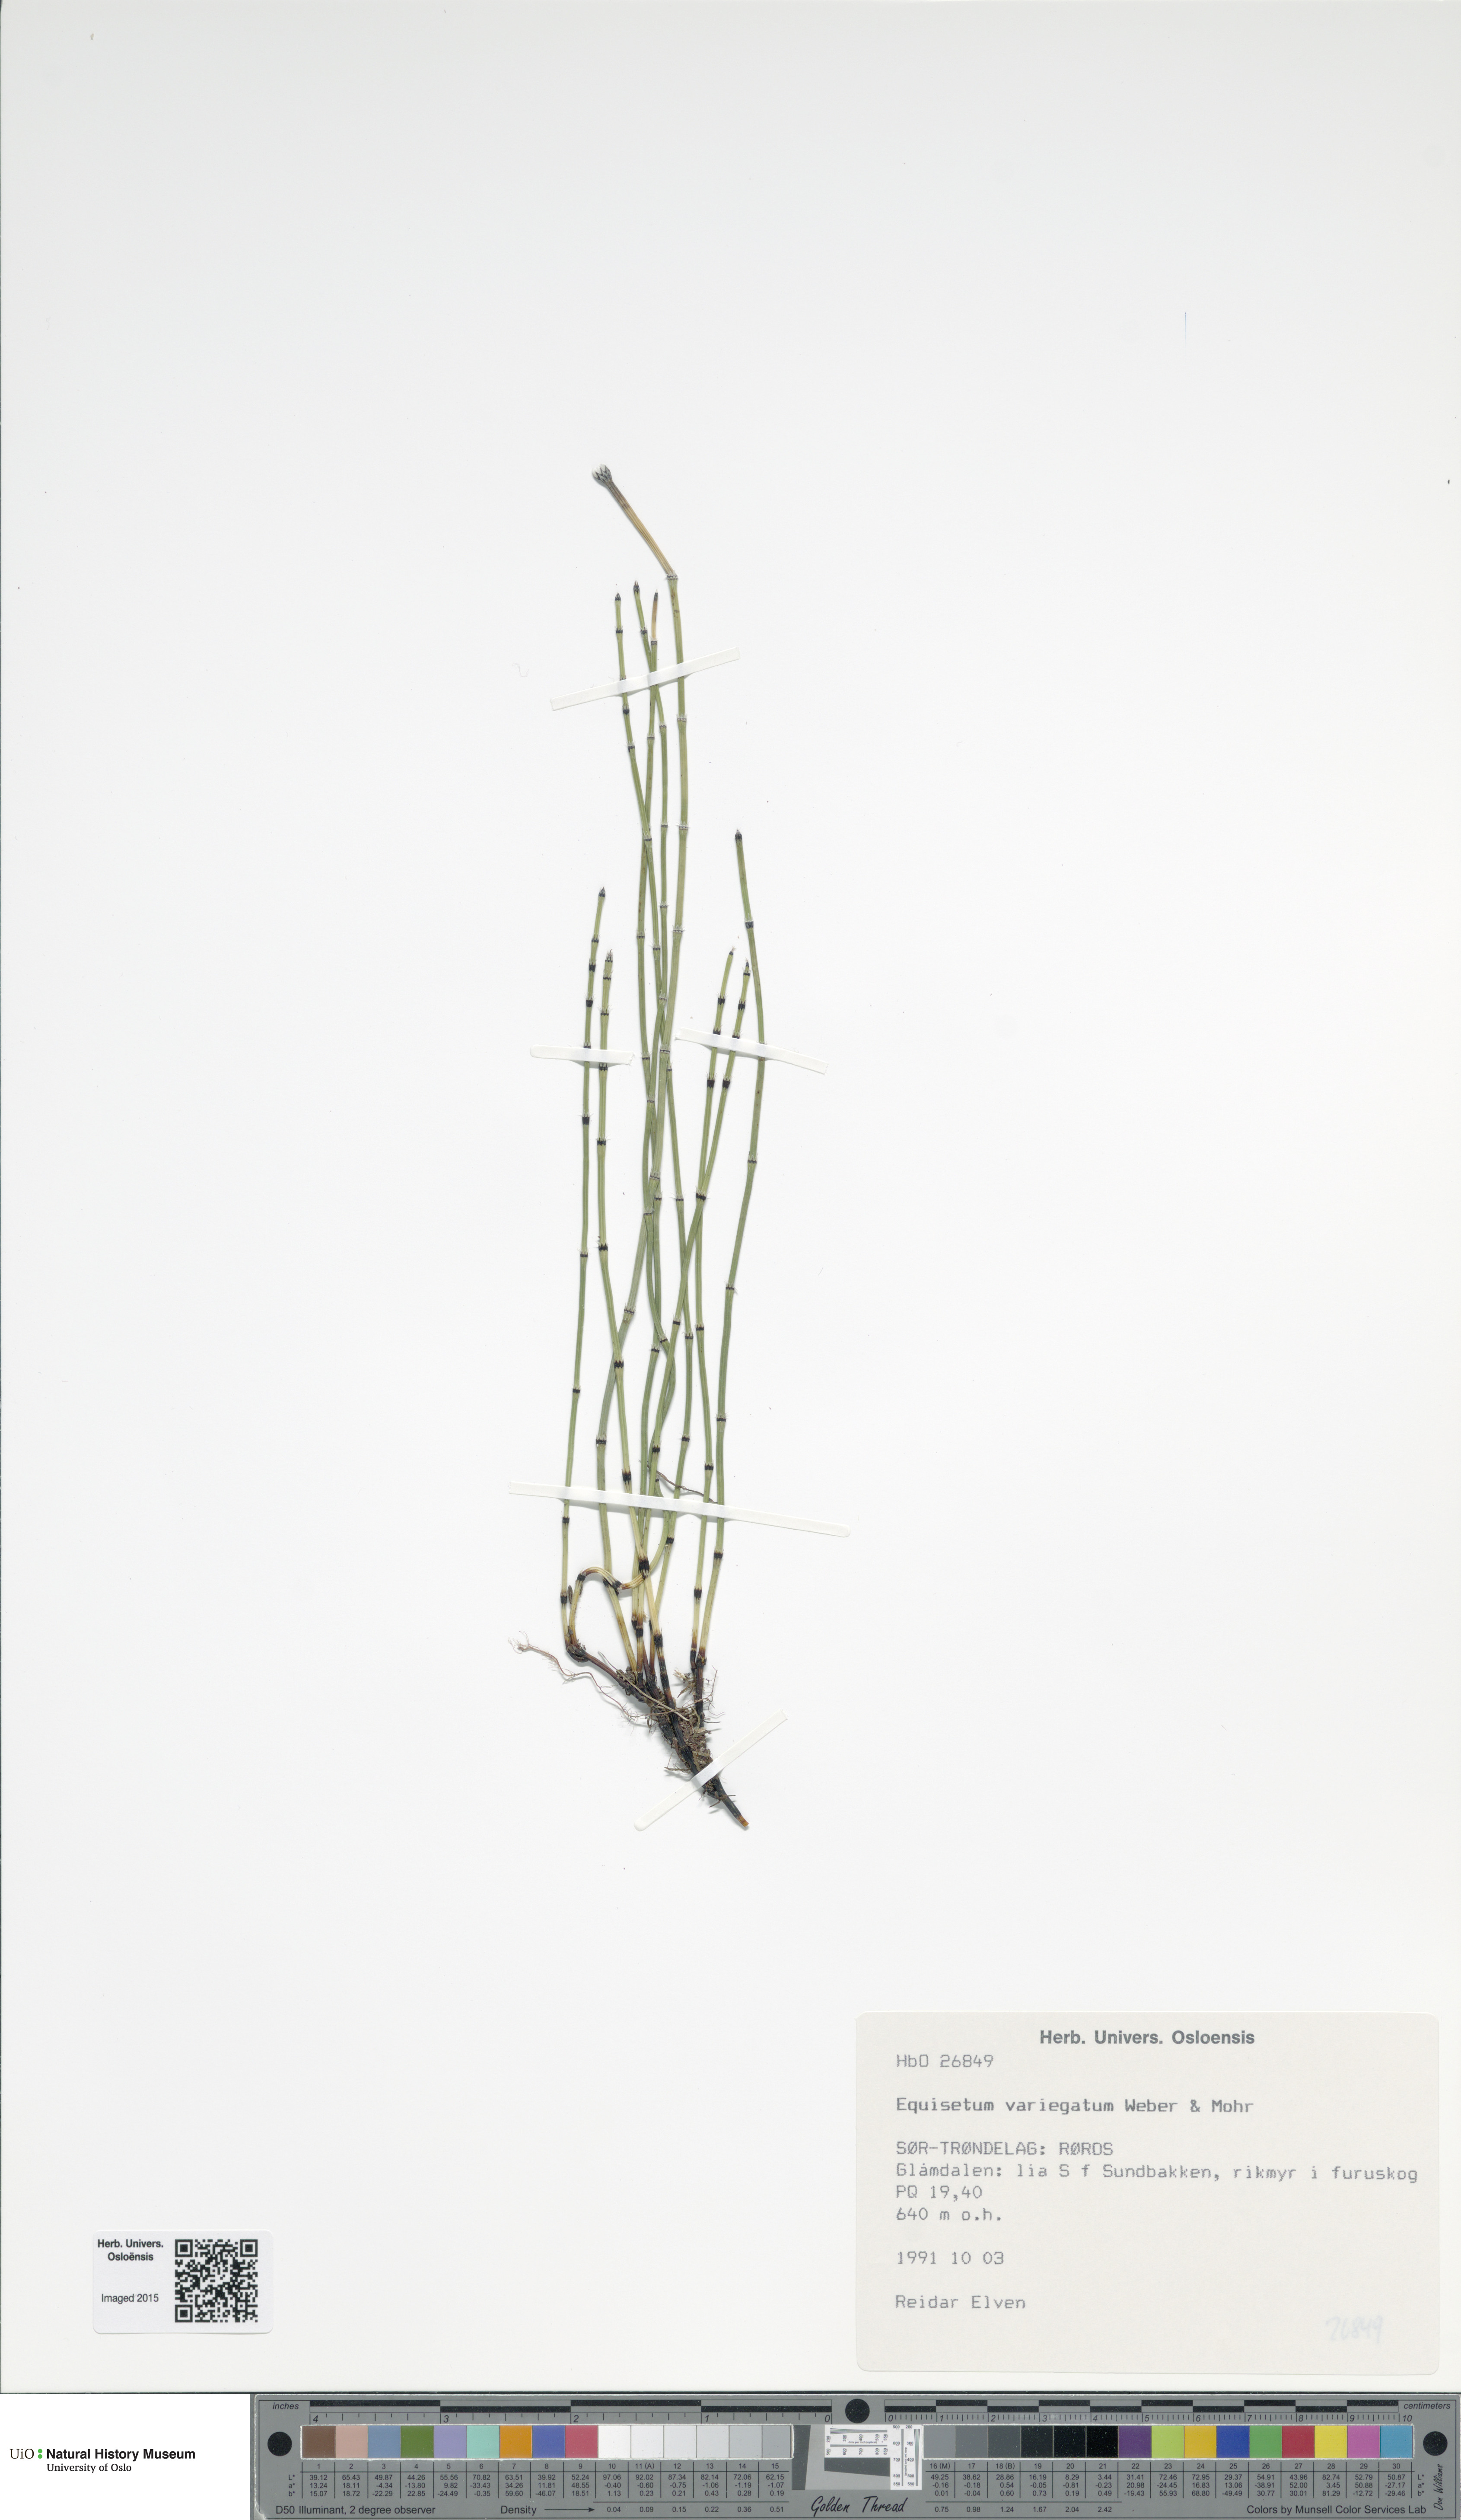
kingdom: Plantae
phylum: Tracheophyta
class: Polypodiopsida
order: Equisetales
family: Equisetaceae
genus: Equisetum
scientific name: Equisetum variegatum
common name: Variegated horsetail
